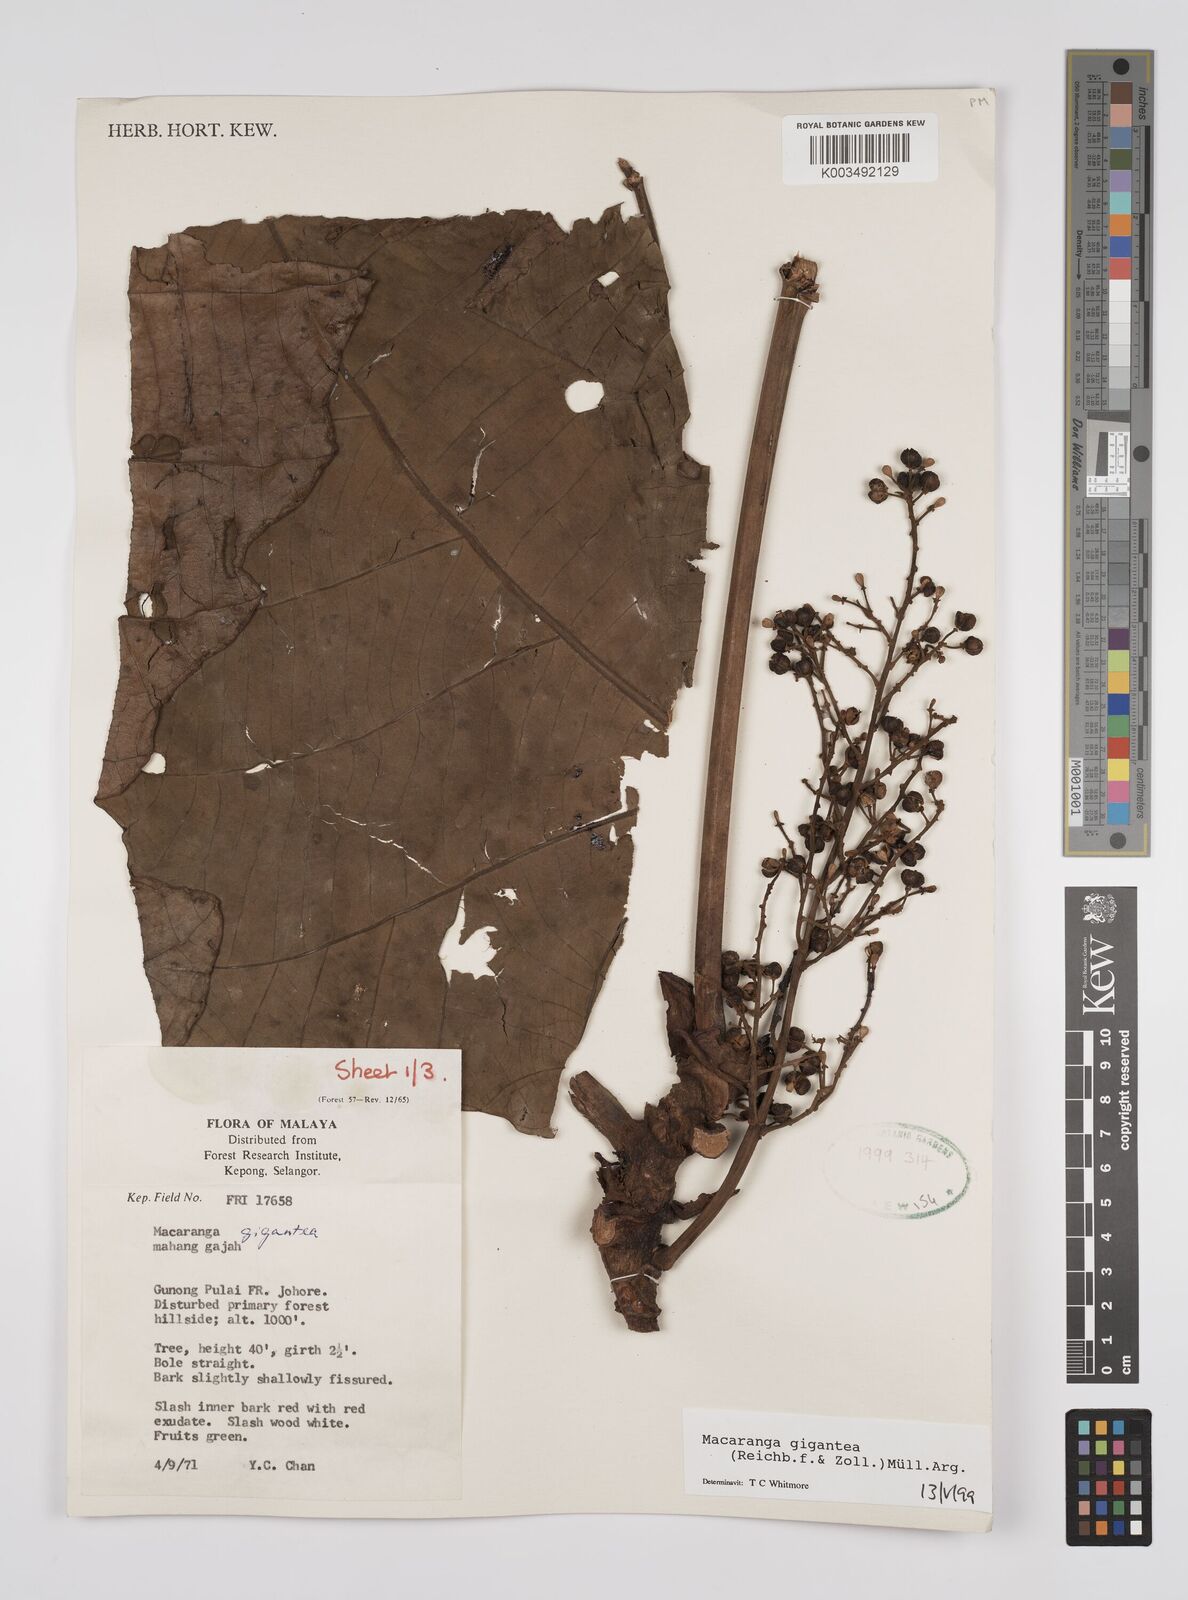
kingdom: Plantae
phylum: Tracheophyta
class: Magnoliopsida
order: Malpighiales
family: Euphorbiaceae
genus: Macaranga
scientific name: Macaranga gigantea
